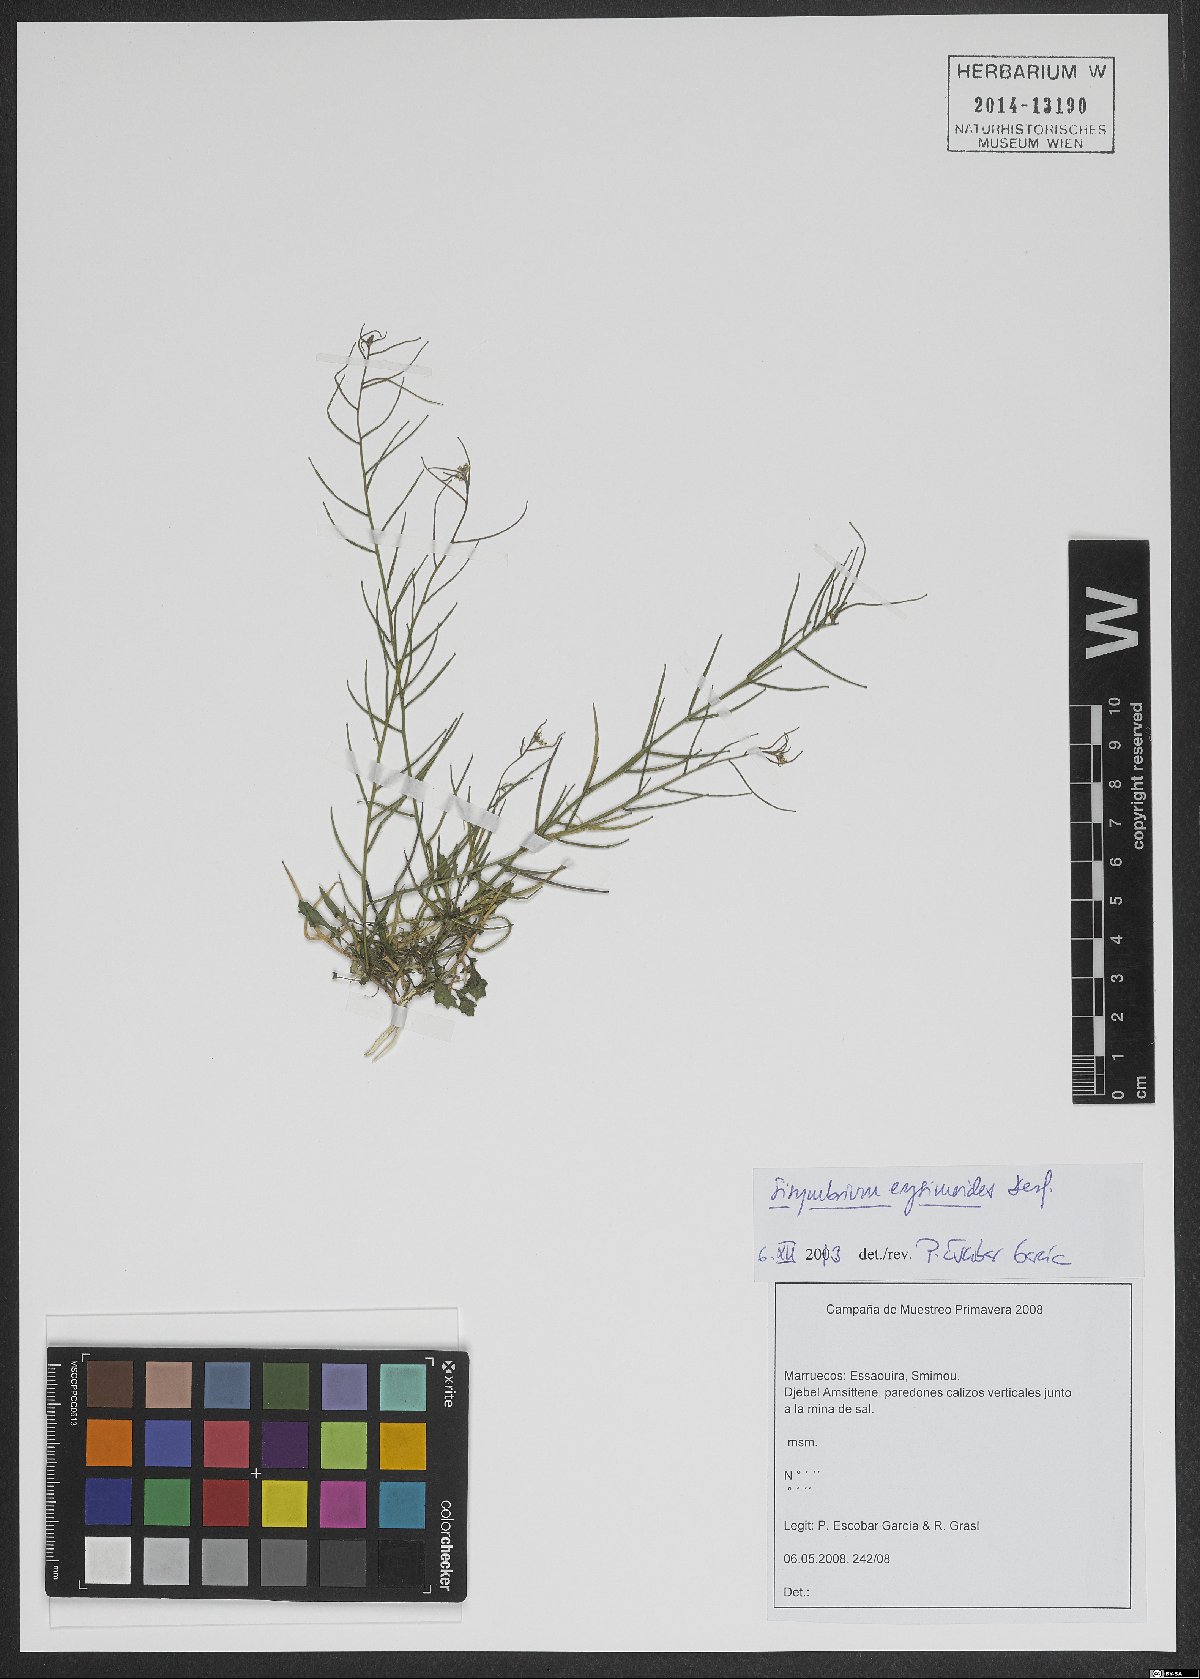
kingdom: Plantae
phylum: Tracheophyta
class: Magnoliopsida
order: Brassicales
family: Brassicaceae
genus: Sisymbrium
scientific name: Sisymbrium erysimoides
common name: French rocket
